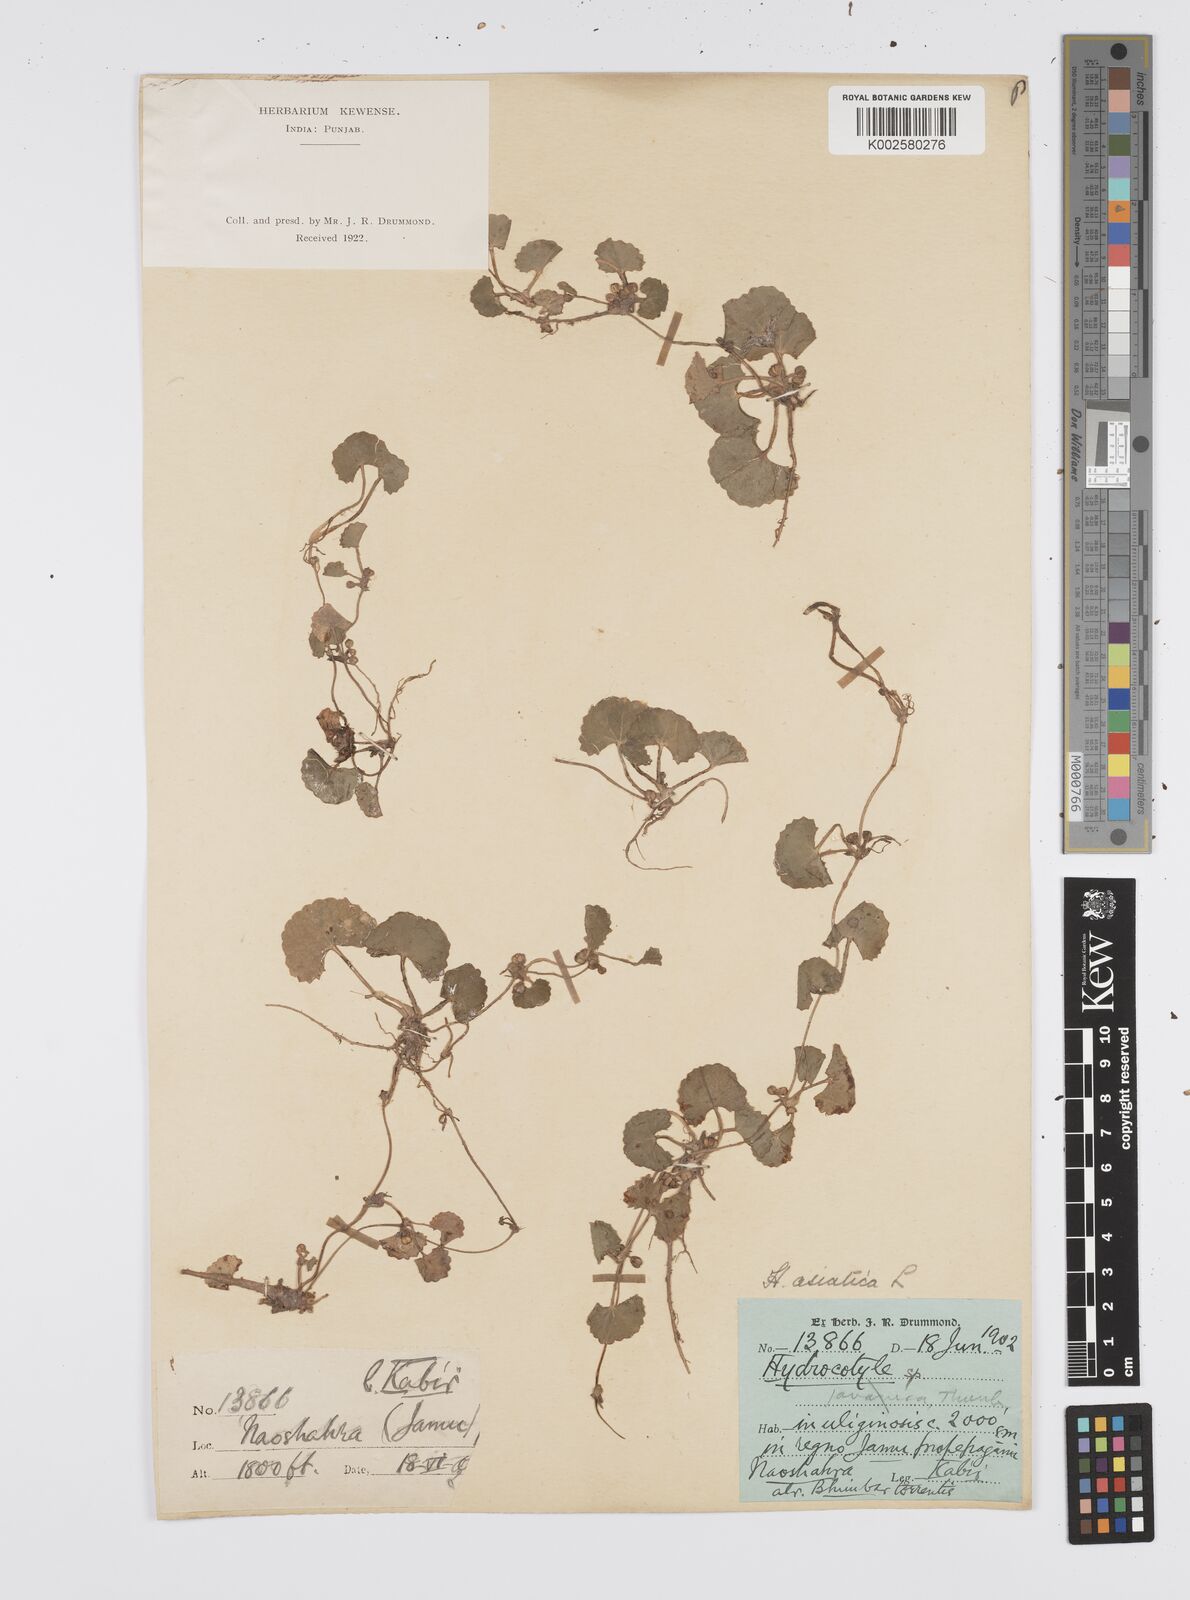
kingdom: Plantae
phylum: Tracheophyta
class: Magnoliopsida
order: Apiales
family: Apiaceae
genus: Centella
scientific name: Centella asiatica
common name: Spadeleaf
